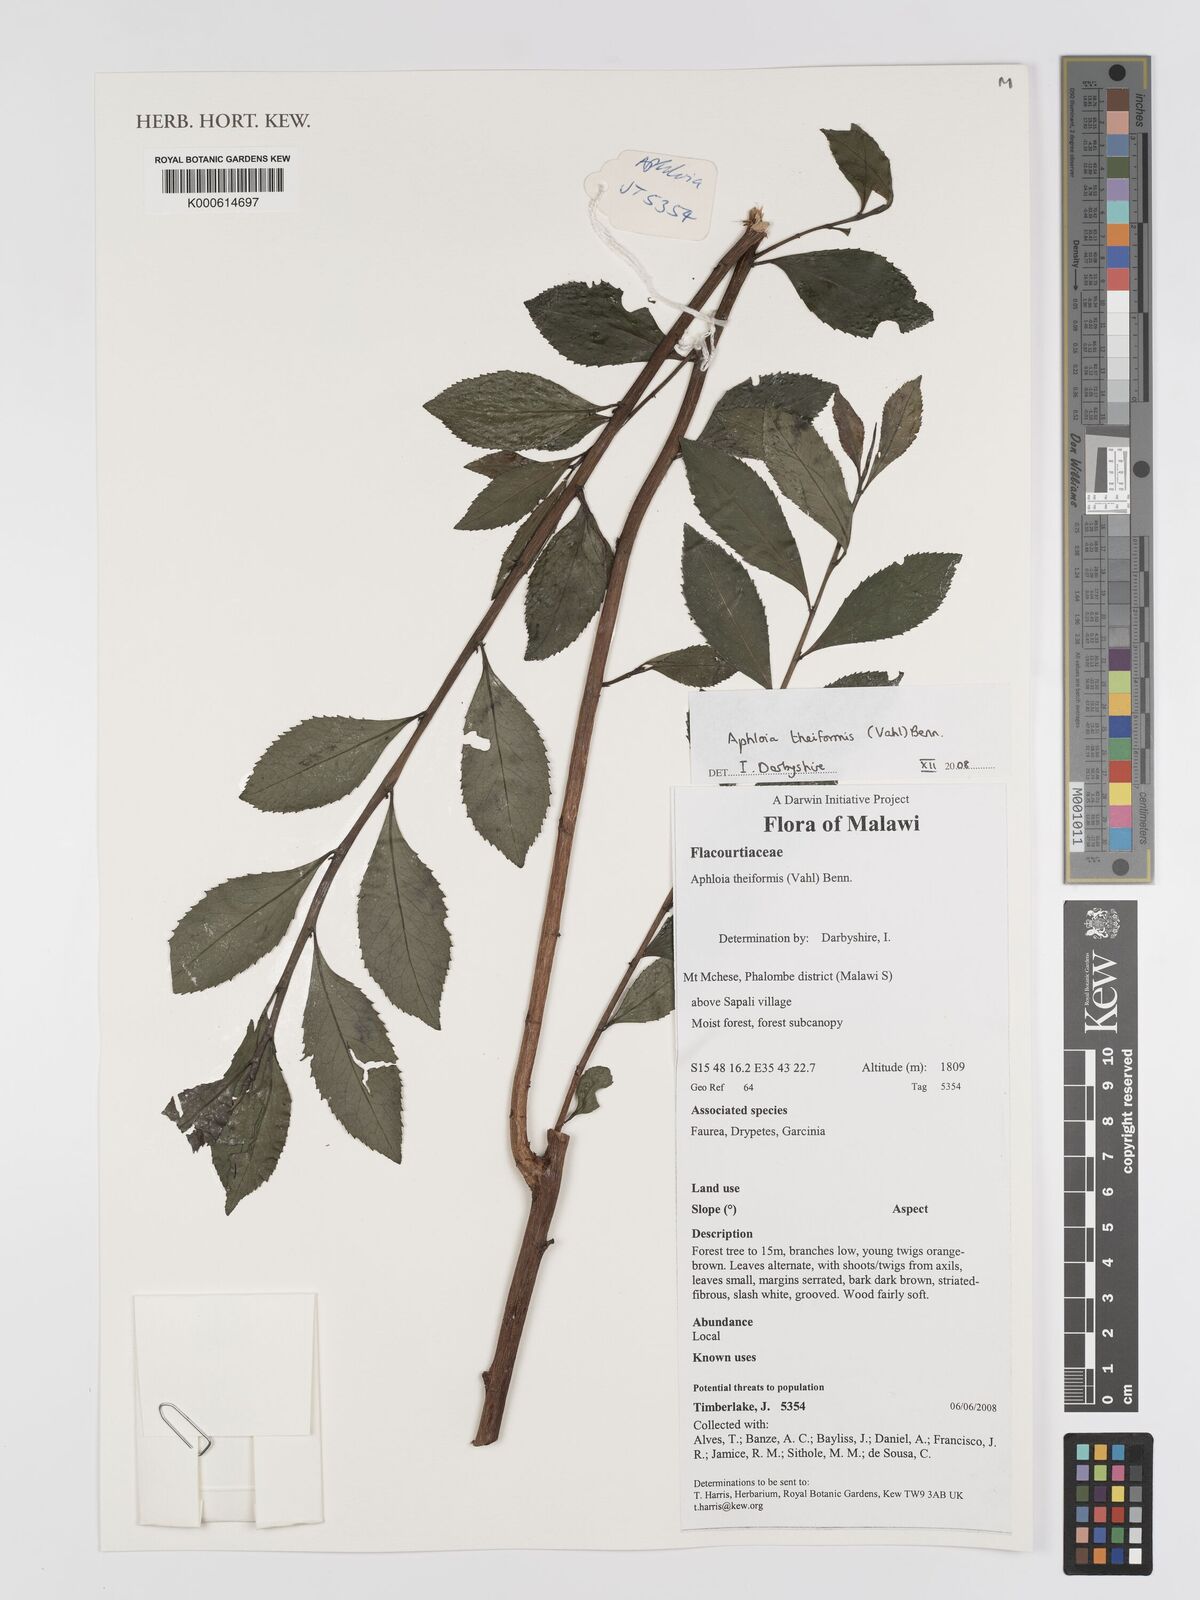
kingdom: Plantae
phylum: Tracheophyta
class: Magnoliopsida
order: Crossosomatales
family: Aphloiaceae
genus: Aphloia
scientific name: Aphloia theiformis
